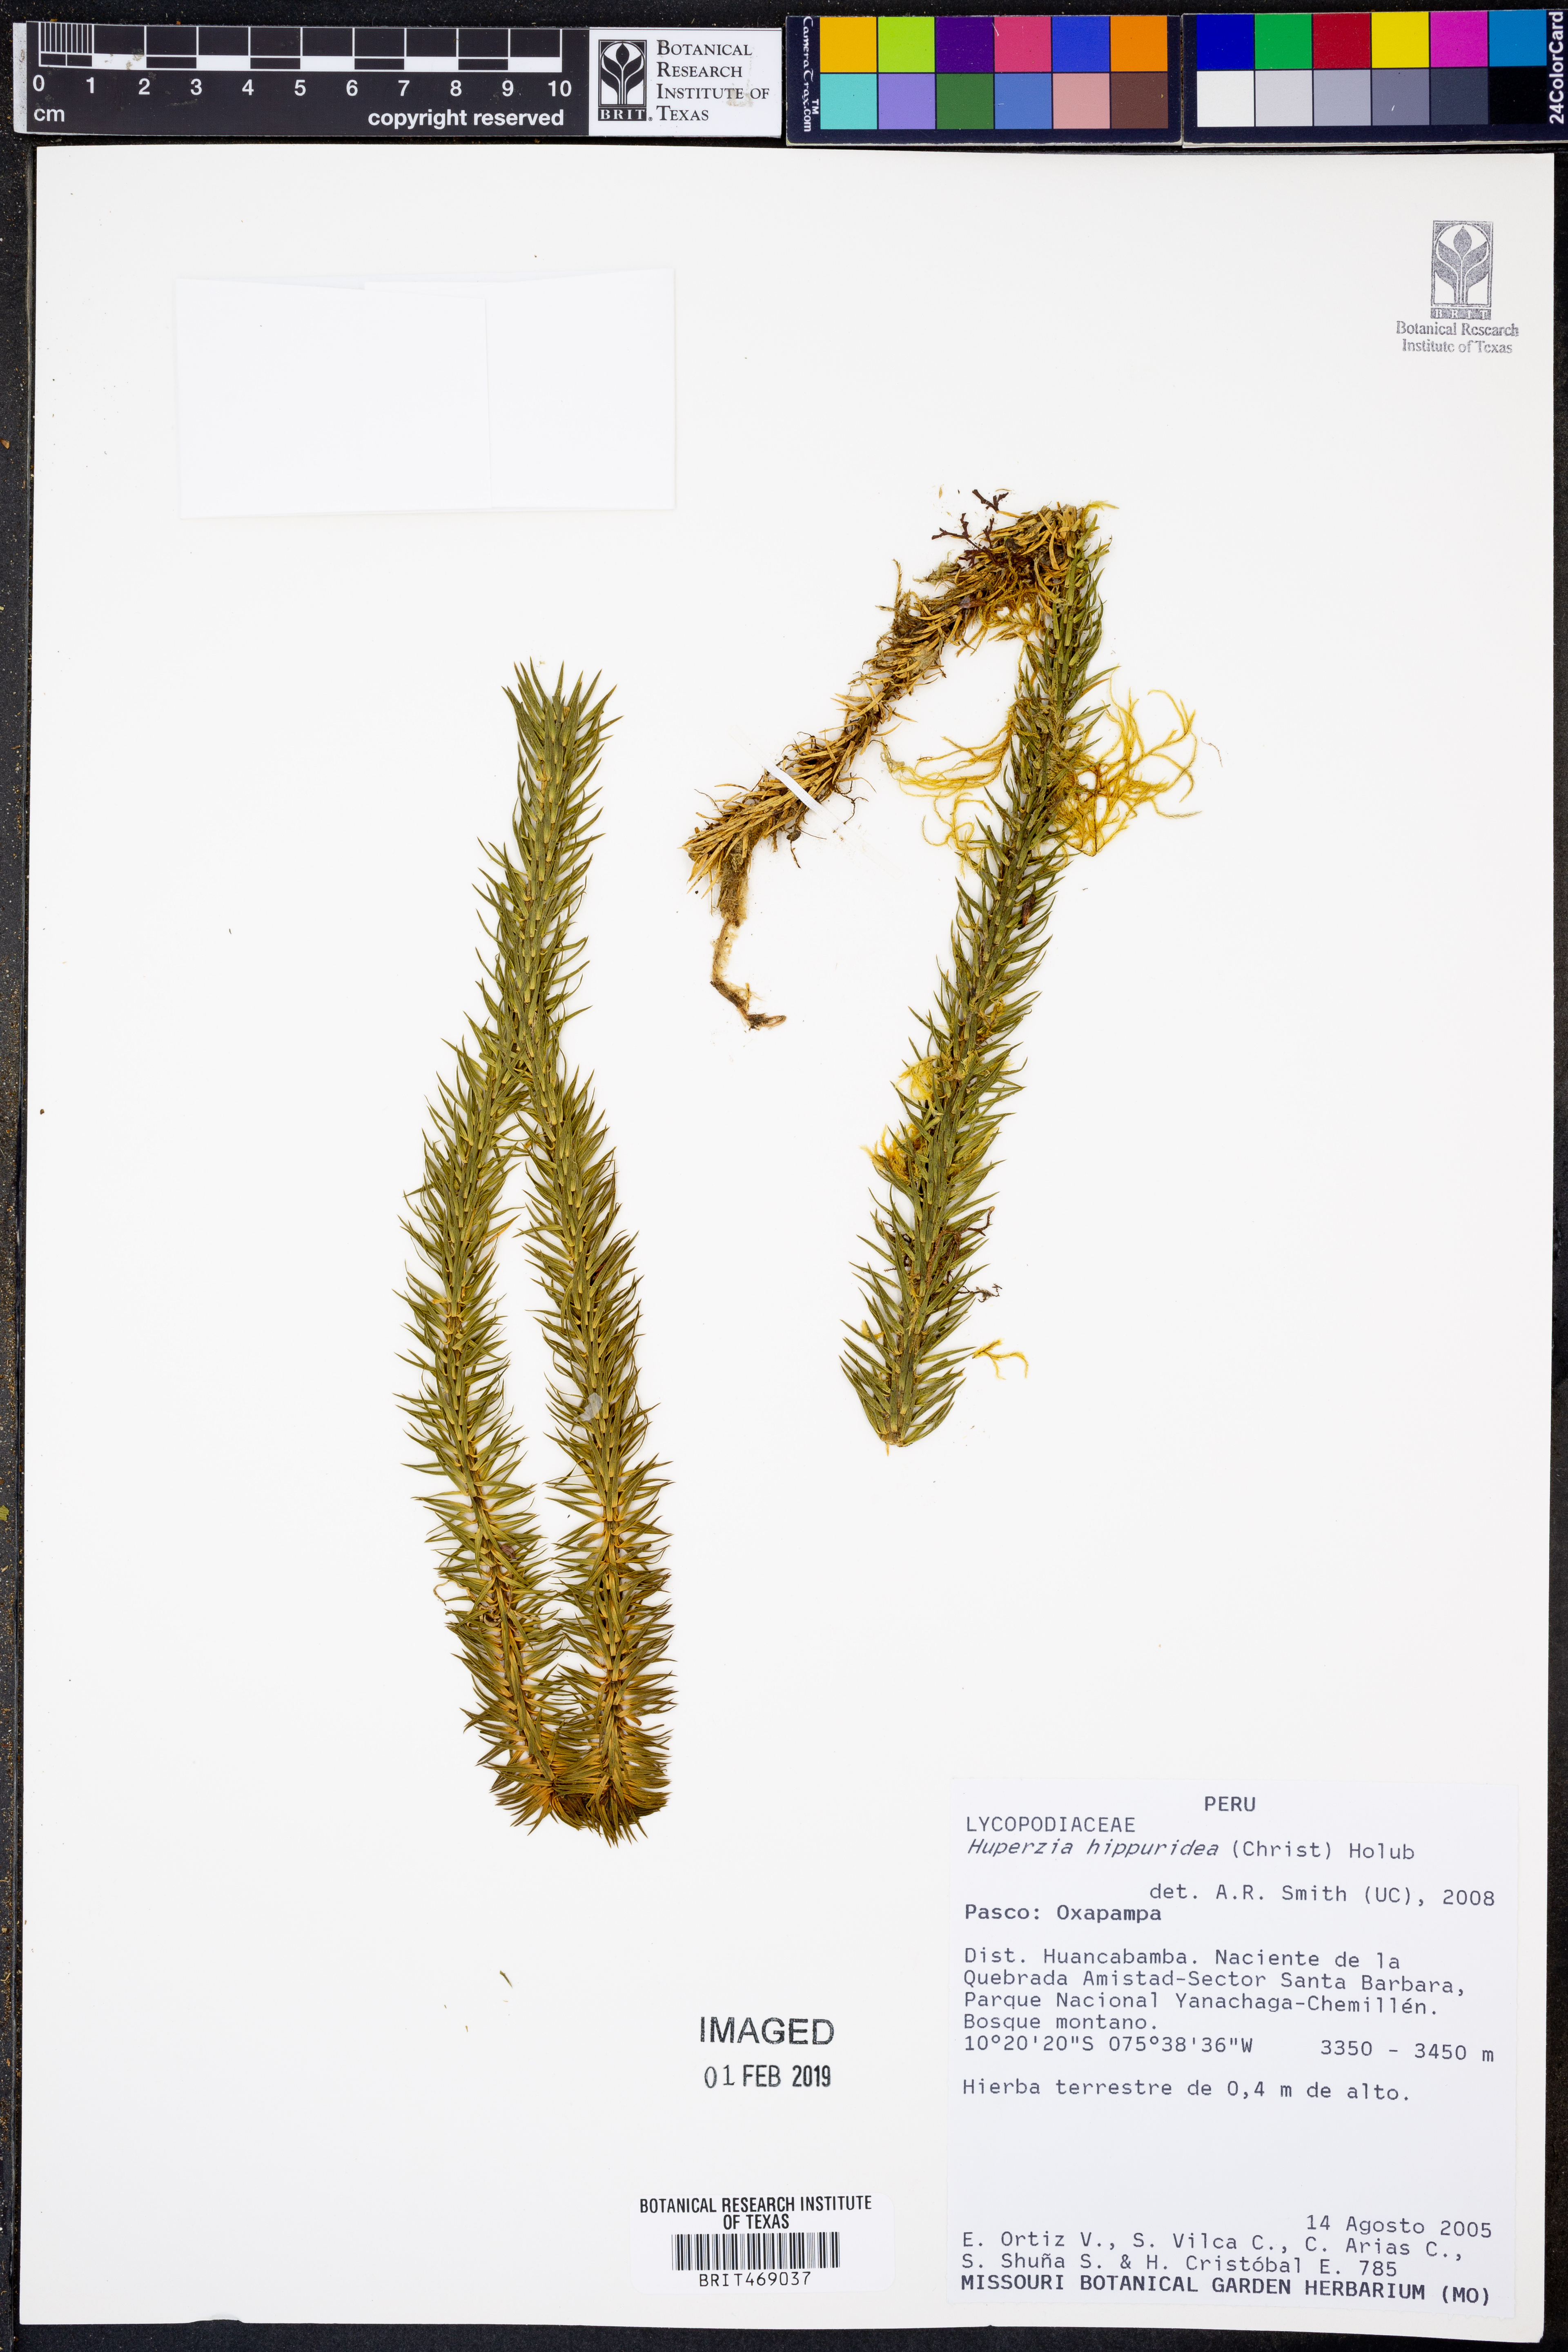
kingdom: Plantae
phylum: Tracheophyta
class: Lycopodiopsida
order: Lycopodiales
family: Lycopodiaceae
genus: Phlegmariurus
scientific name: Phlegmariurus hippurideus
